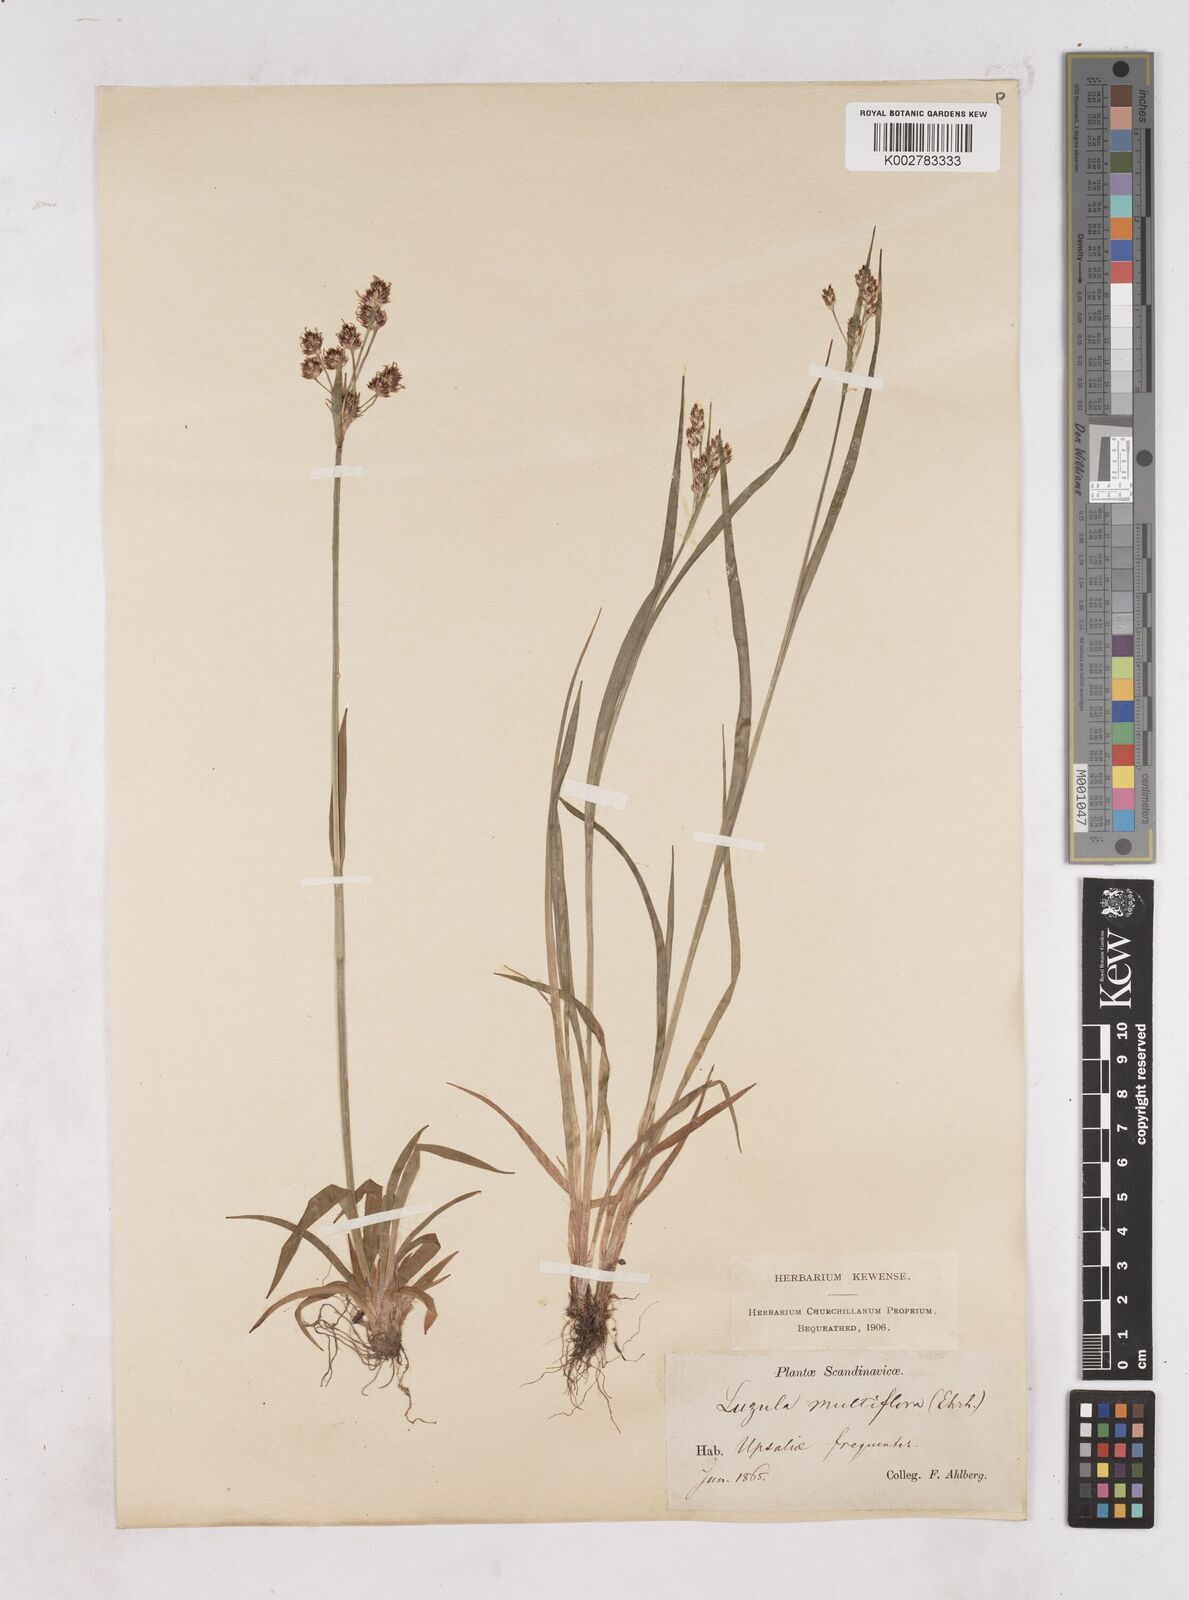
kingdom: Plantae
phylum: Tracheophyta
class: Liliopsida
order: Poales
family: Juncaceae
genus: Luzula
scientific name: Luzula multiflora
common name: Heath wood-rush
